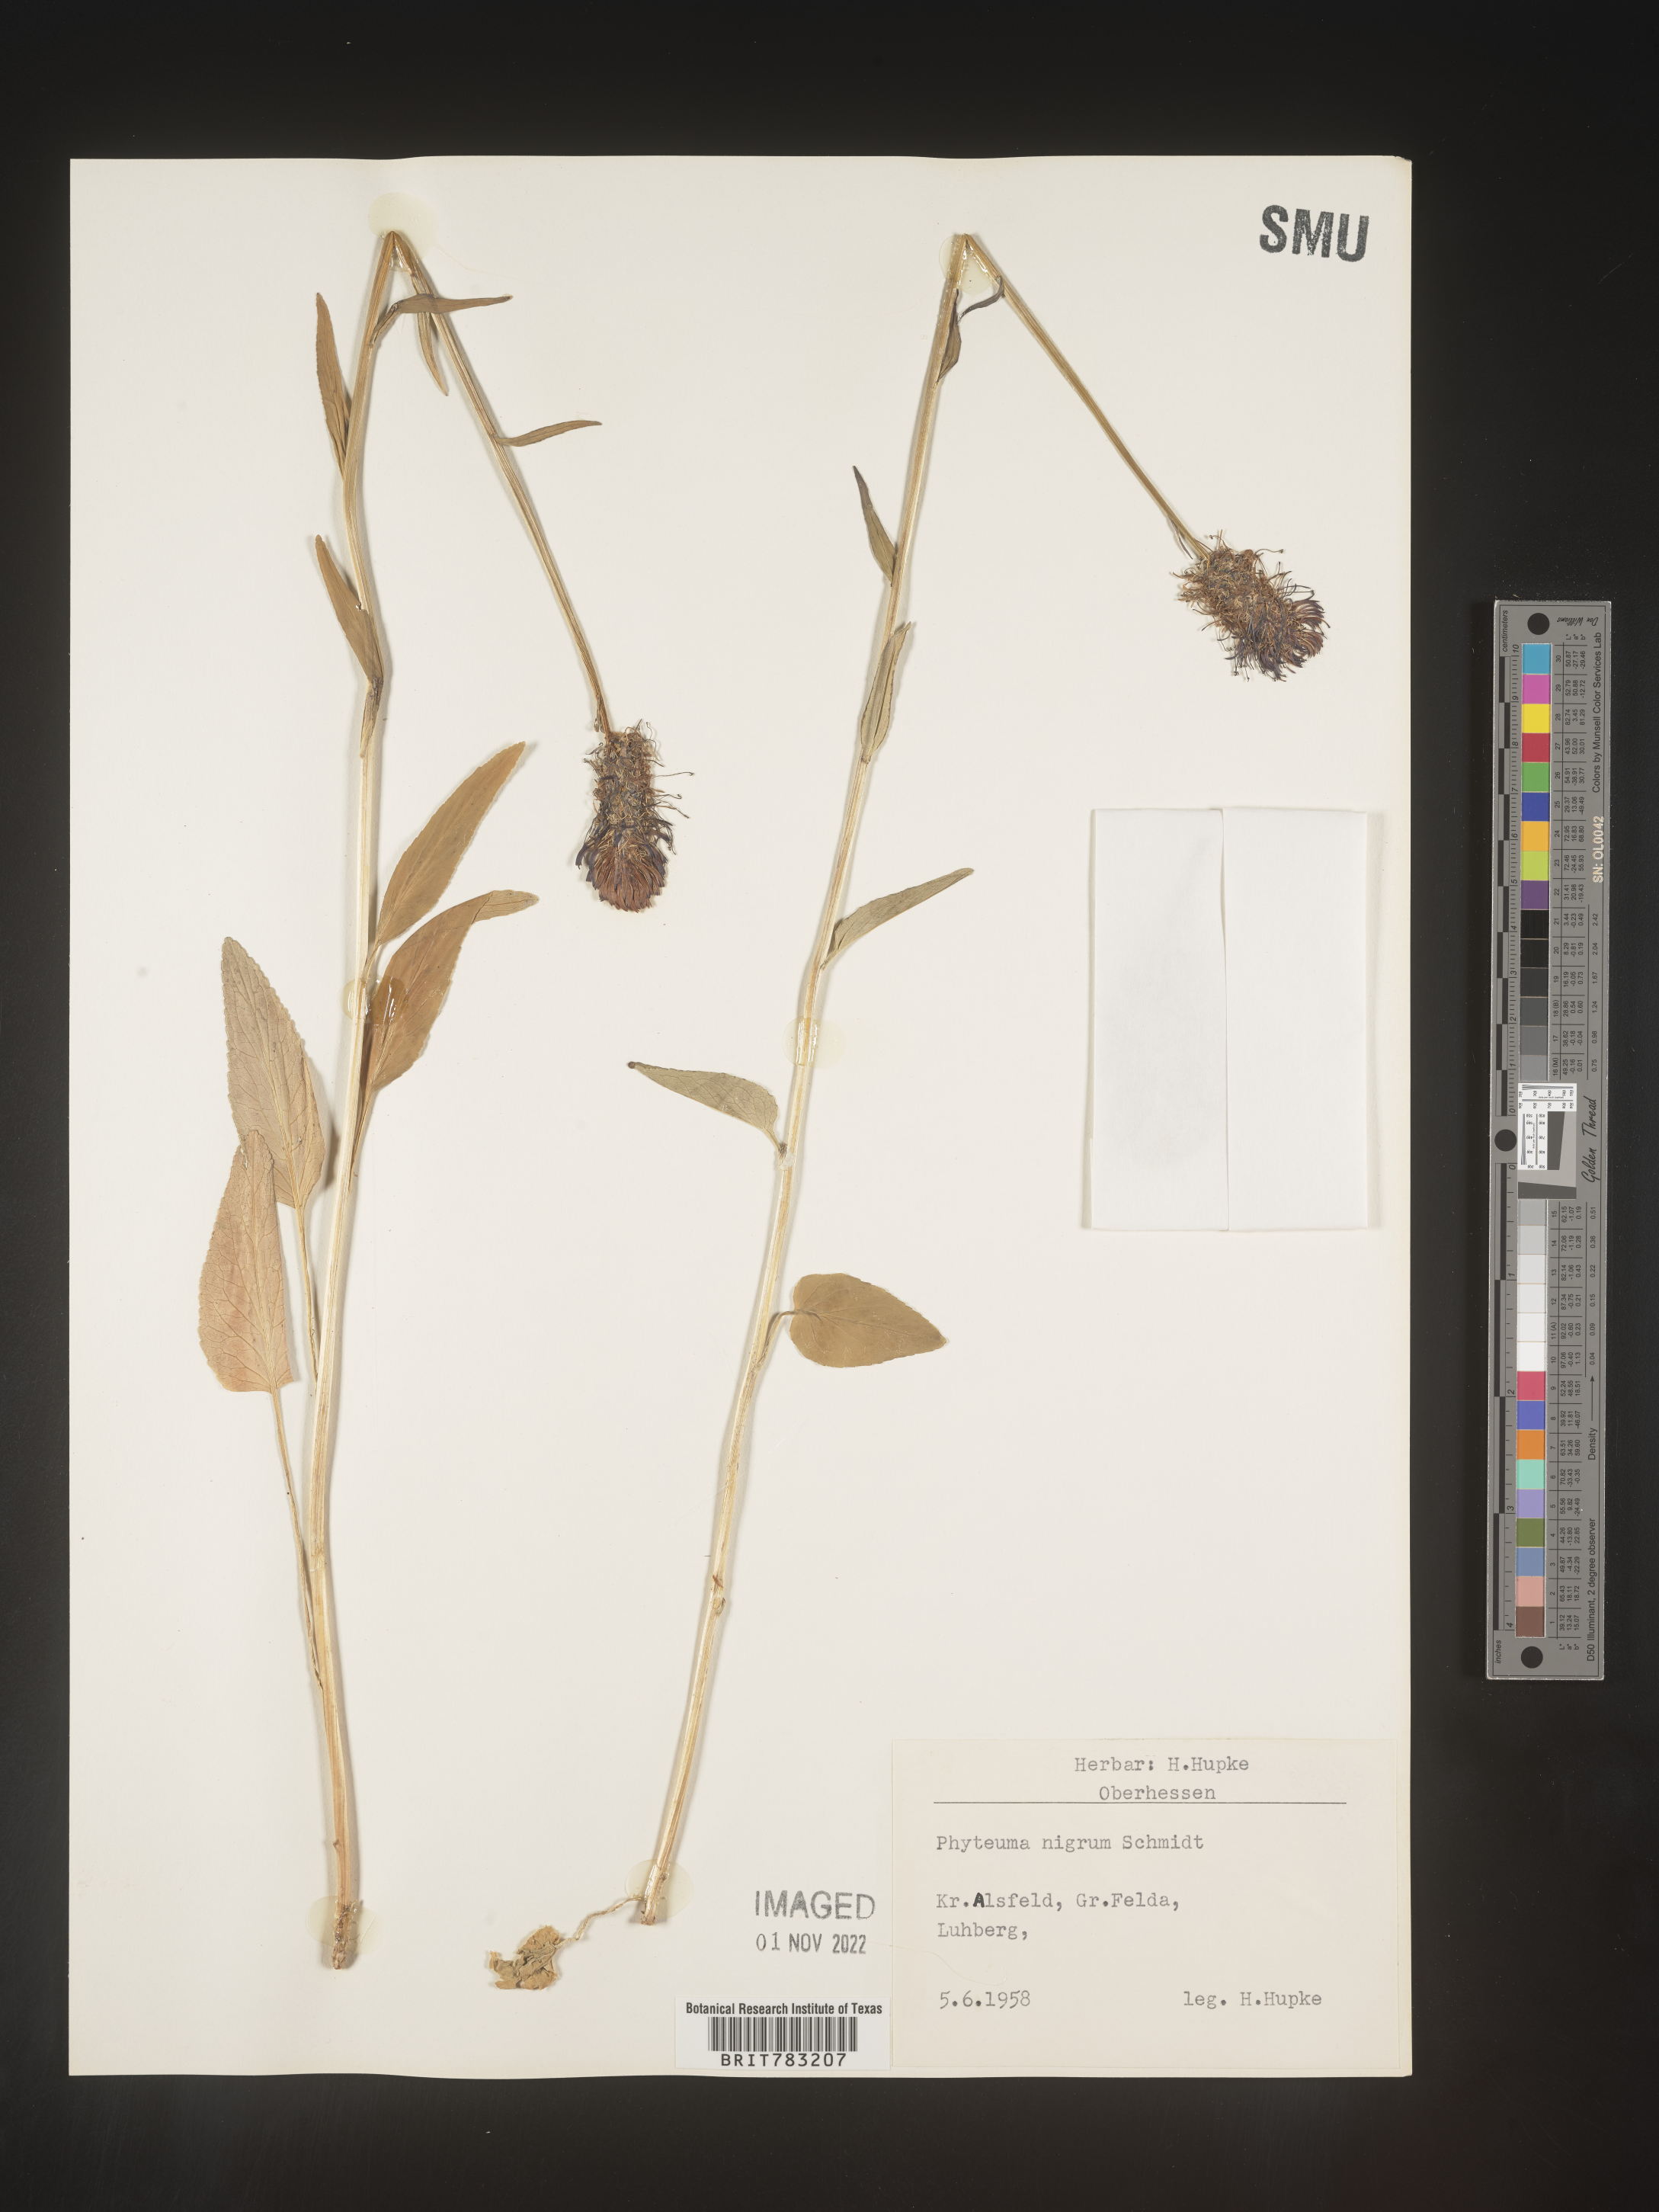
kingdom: Plantae
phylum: Tracheophyta
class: Magnoliopsida
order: Asterales
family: Campanulaceae
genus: Phyteuma
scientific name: Phyteuma
